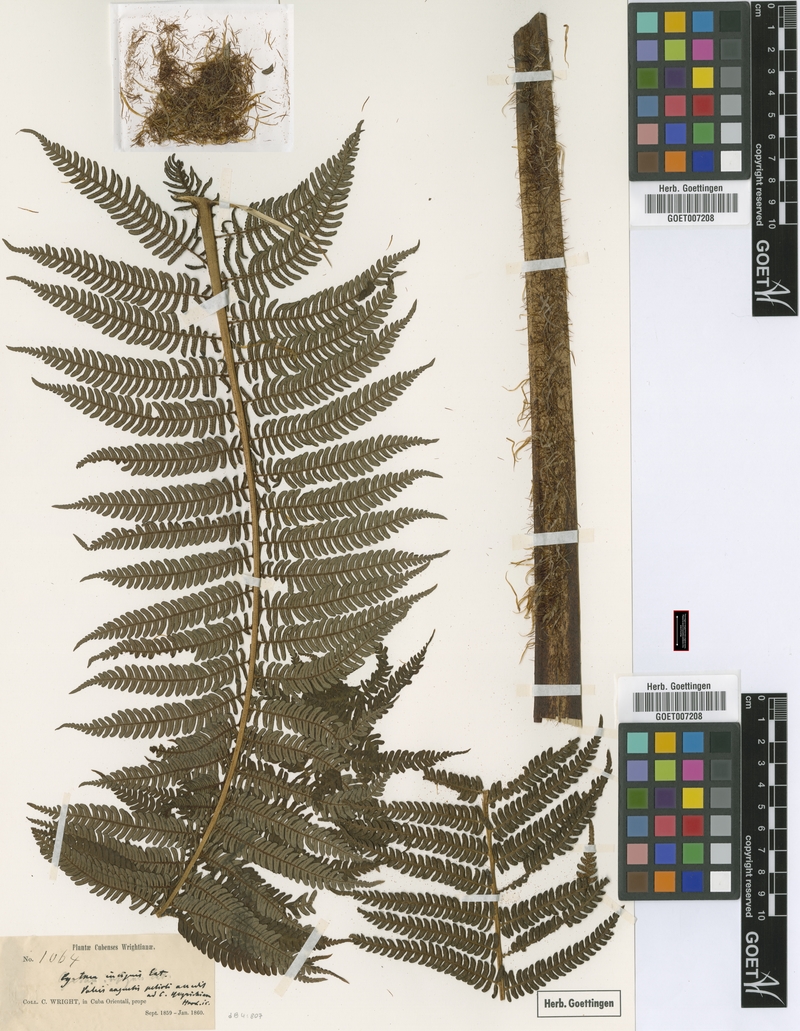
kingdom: Plantae
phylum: Tracheophyta
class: Polypodiopsida
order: Cyatheales
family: Cyatheaceae
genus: Sphaeropteris
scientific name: Sphaeropteris insignis
